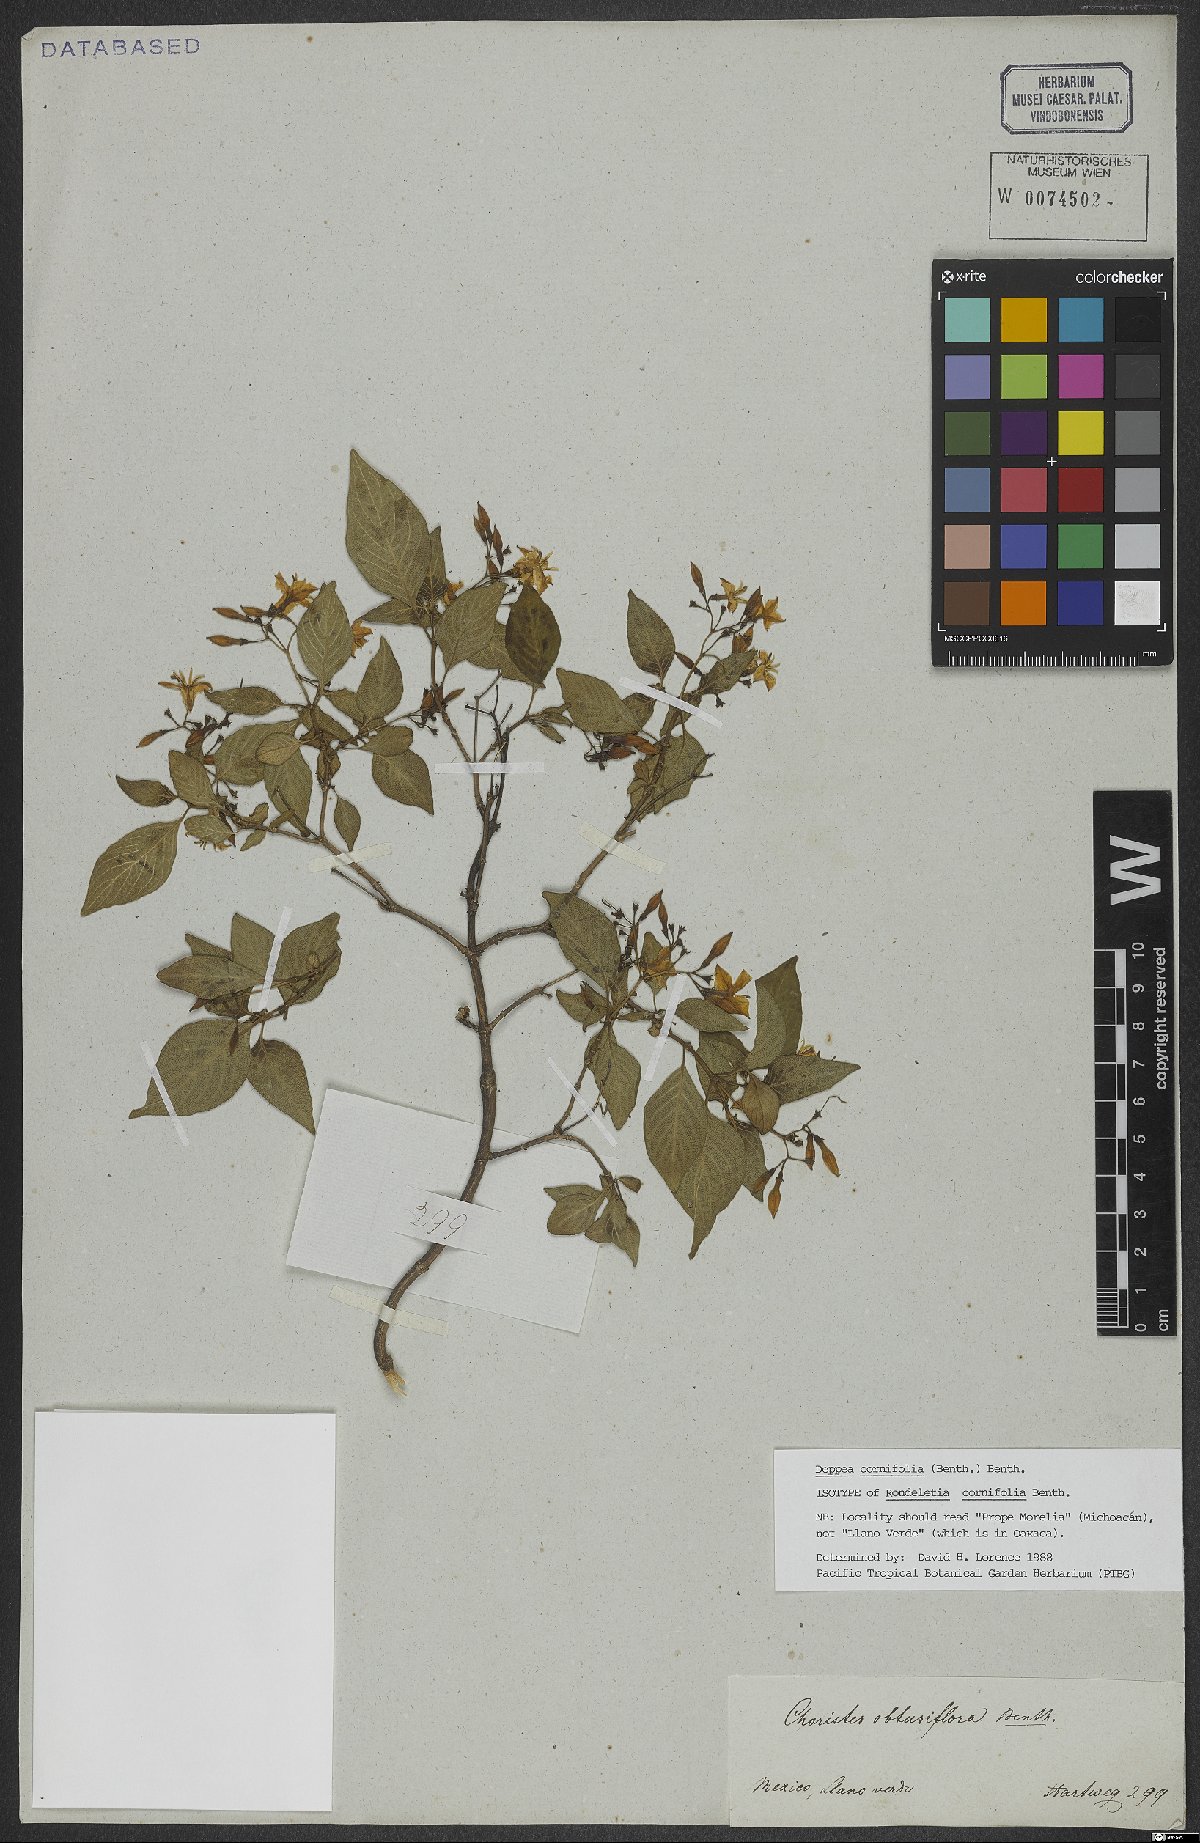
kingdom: Plantae
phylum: Tracheophyta
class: Magnoliopsida
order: Gentianales
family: Rubiaceae
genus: Deppea
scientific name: Deppea cornifolia
